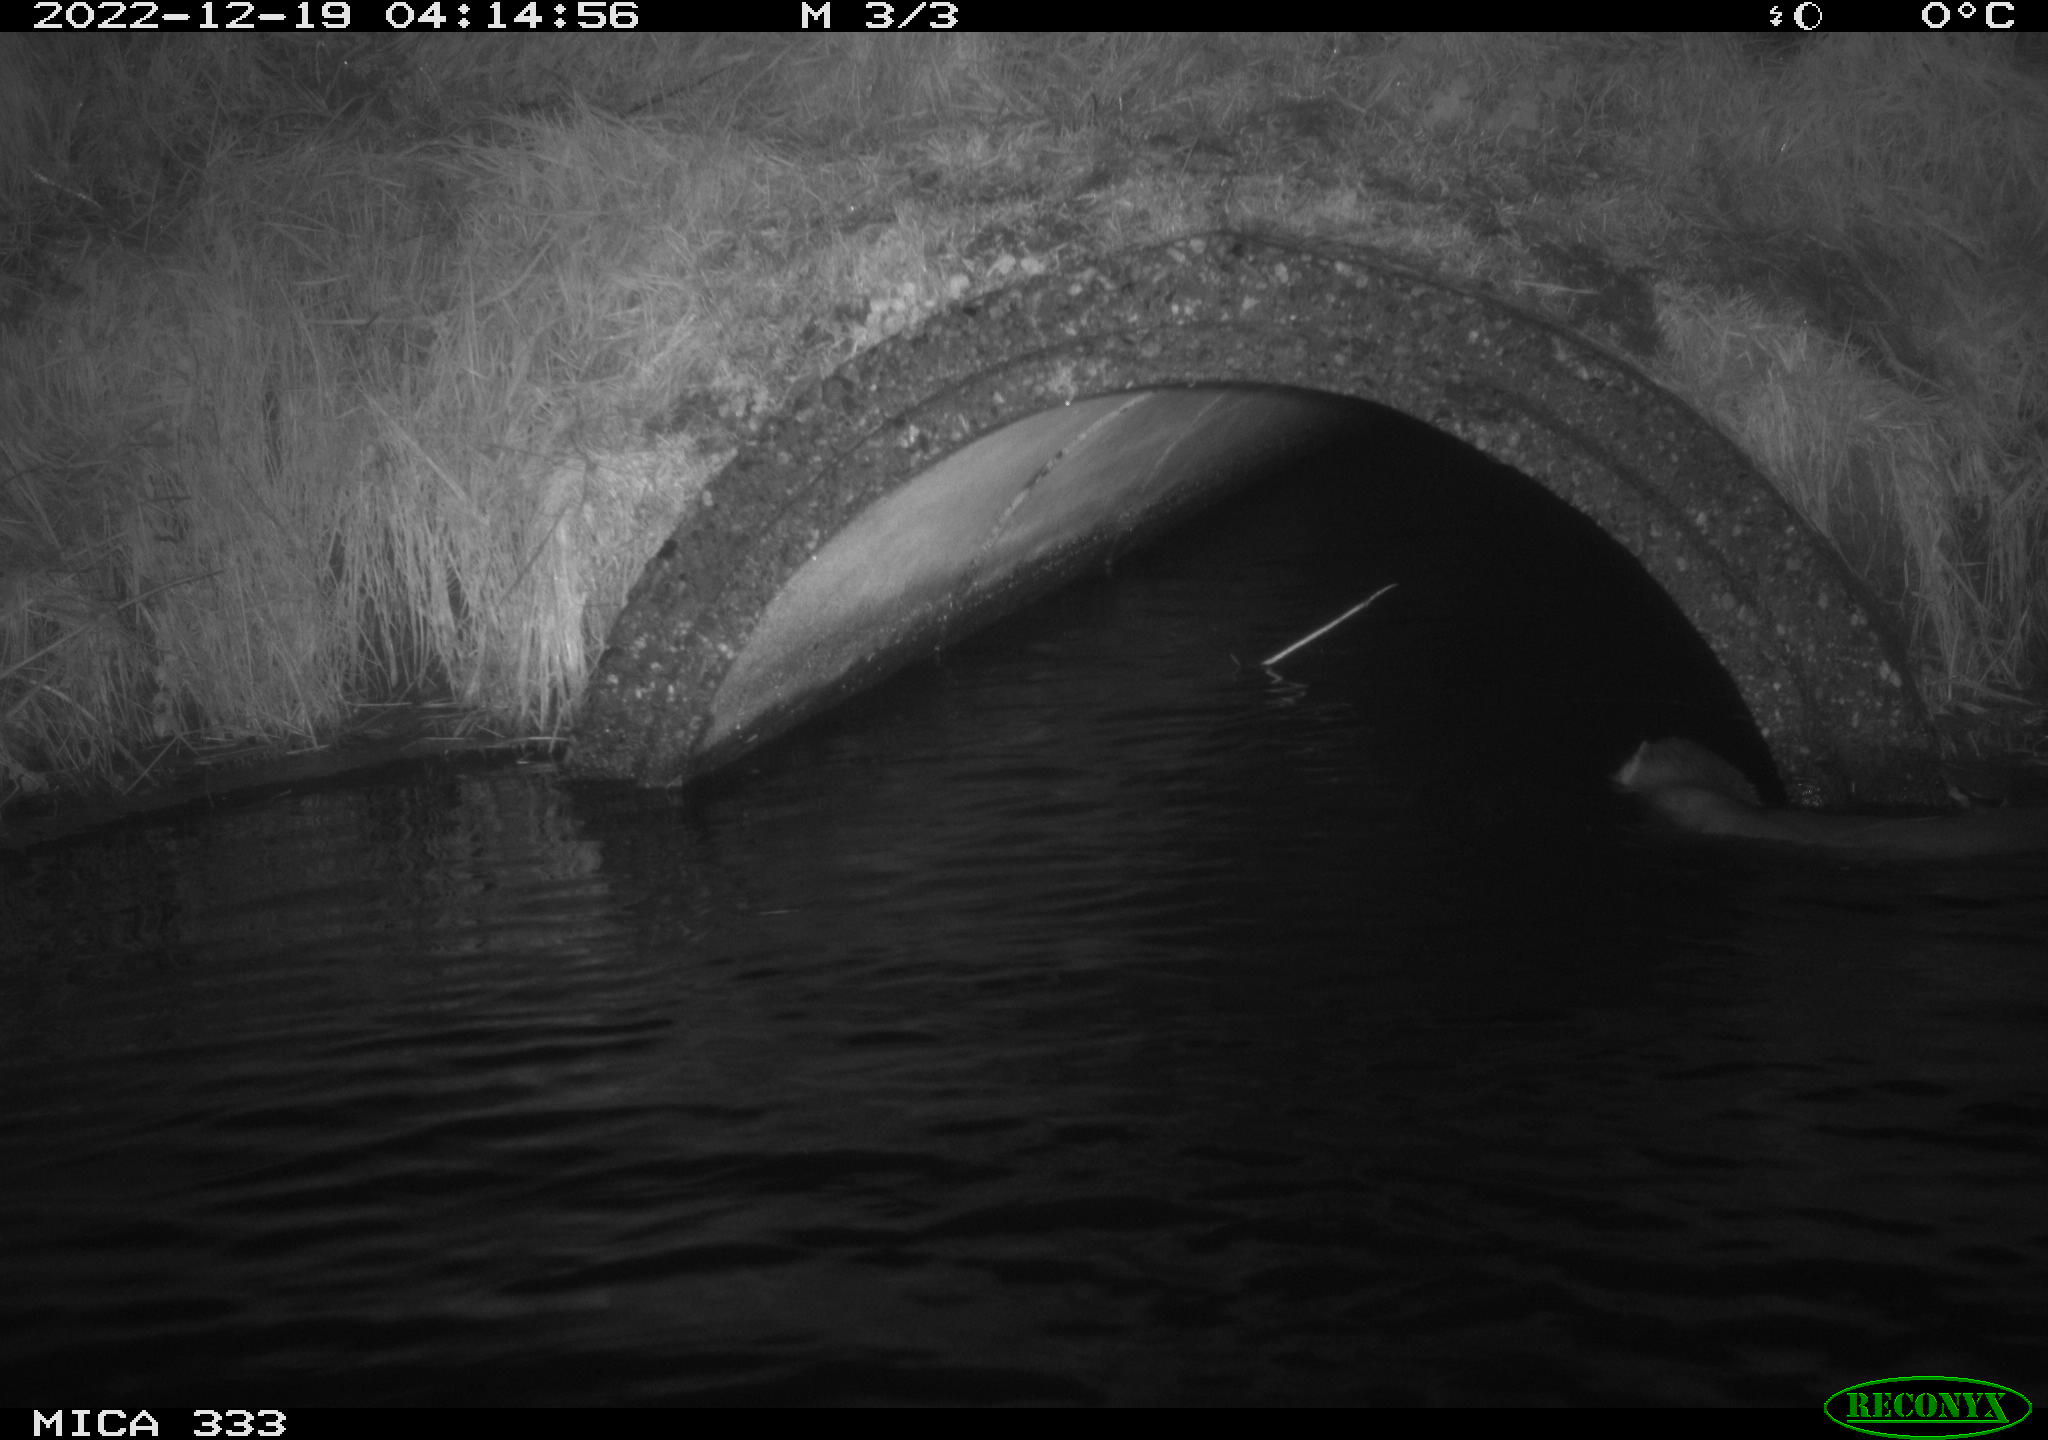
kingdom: Animalia
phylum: Chordata
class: Mammalia
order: Carnivora
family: Mustelidae
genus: Lutra
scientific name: Lutra lutra
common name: European otter
